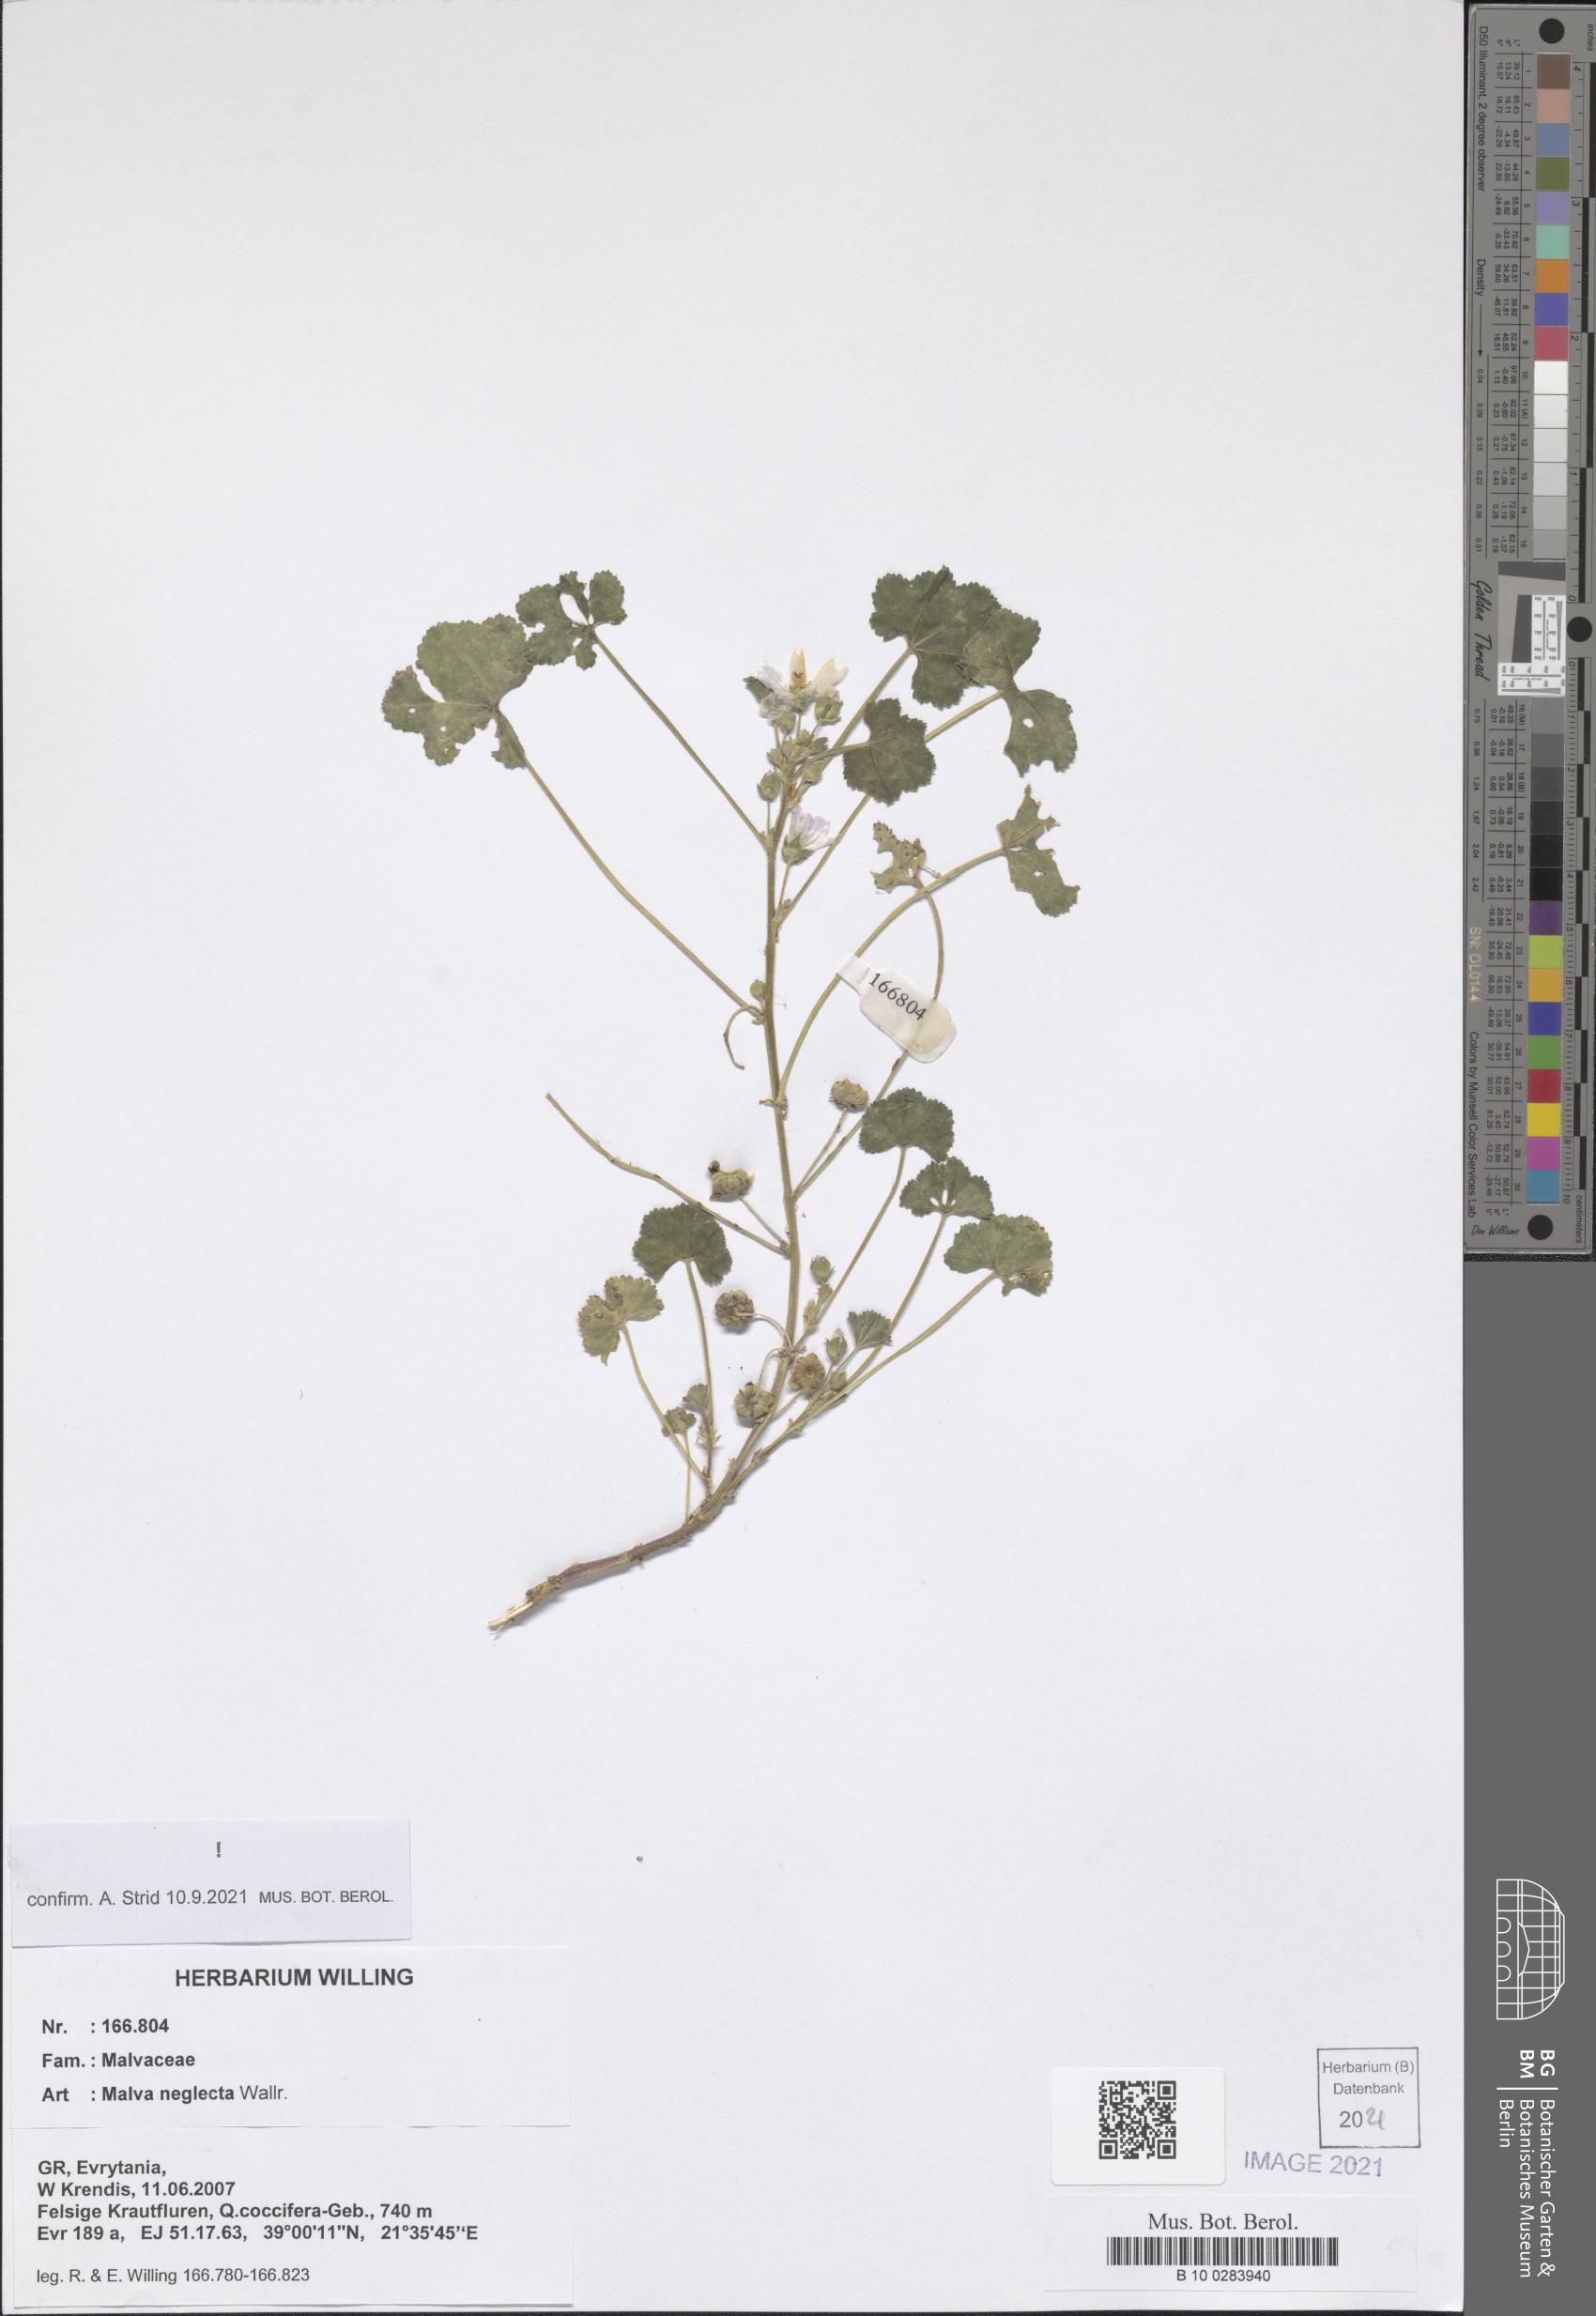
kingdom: Plantae
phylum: Tracheophyta
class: Magnoliopsida
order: Malvales
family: Malvaceae
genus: Malva
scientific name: Malva neglecta
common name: Common mallow
